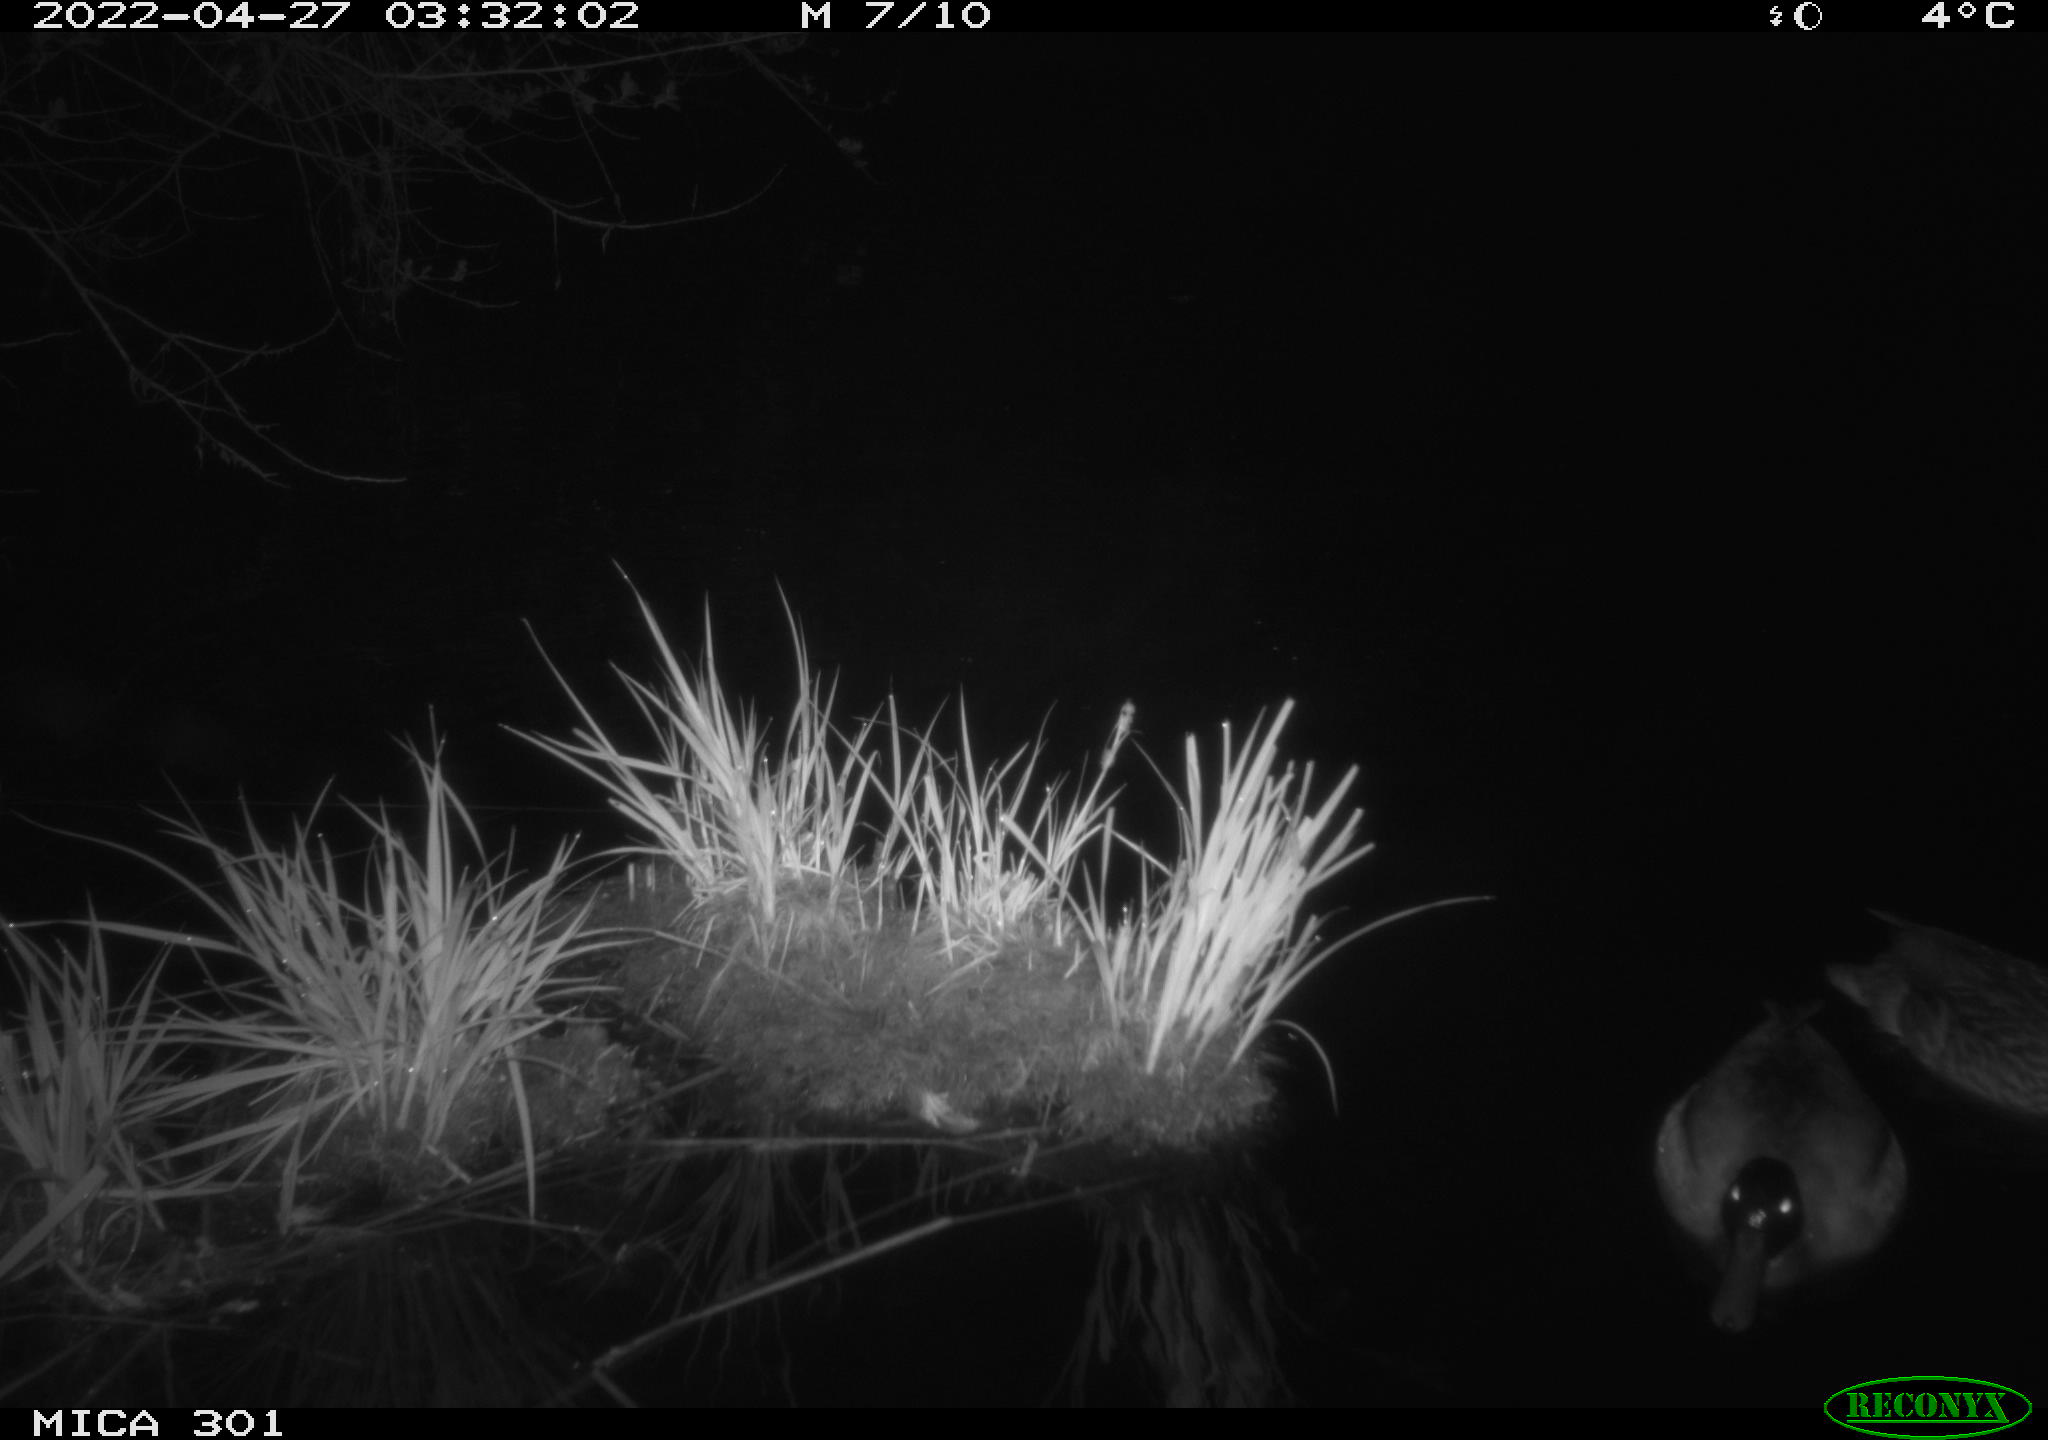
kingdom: Animalia
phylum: Chordata
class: Aves
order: Anseriformes
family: Anatidae
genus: Anas
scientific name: Anas platyrhynchos
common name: Mallard
